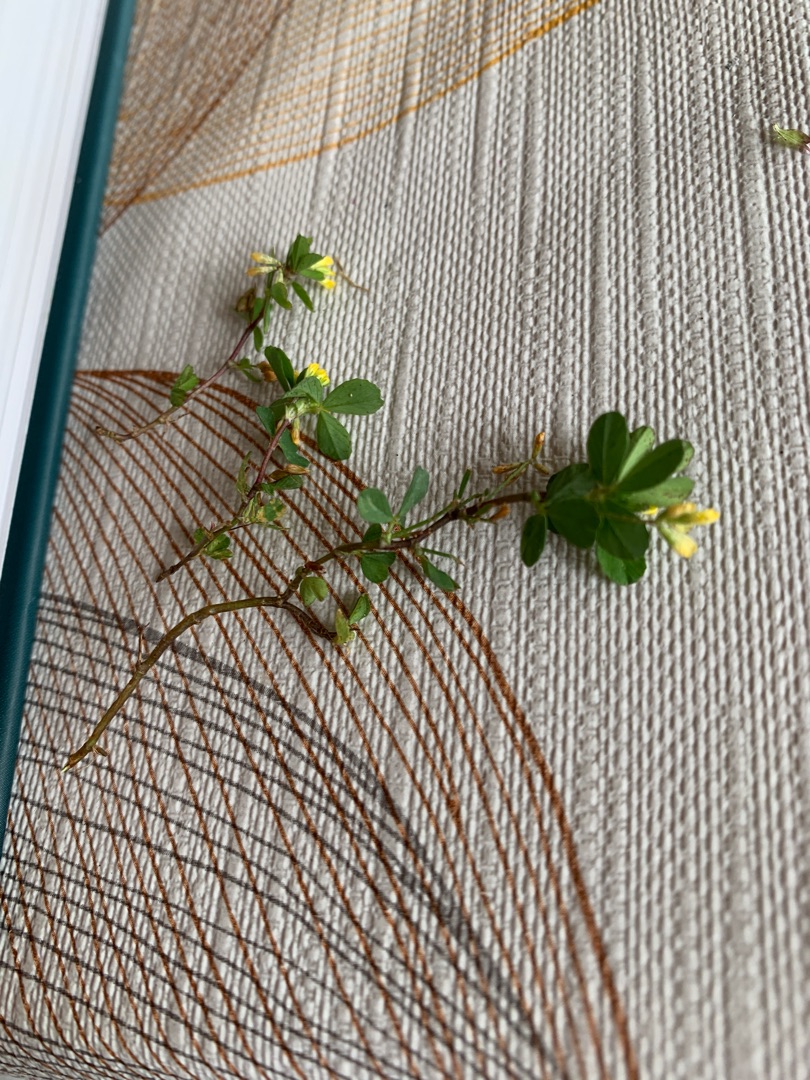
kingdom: Plantae
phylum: Tracheophyta
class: Magnoliopsida
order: Fabales
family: Fabaceae
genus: Trifolium
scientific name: Trifolium dubium
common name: Fin kløver
